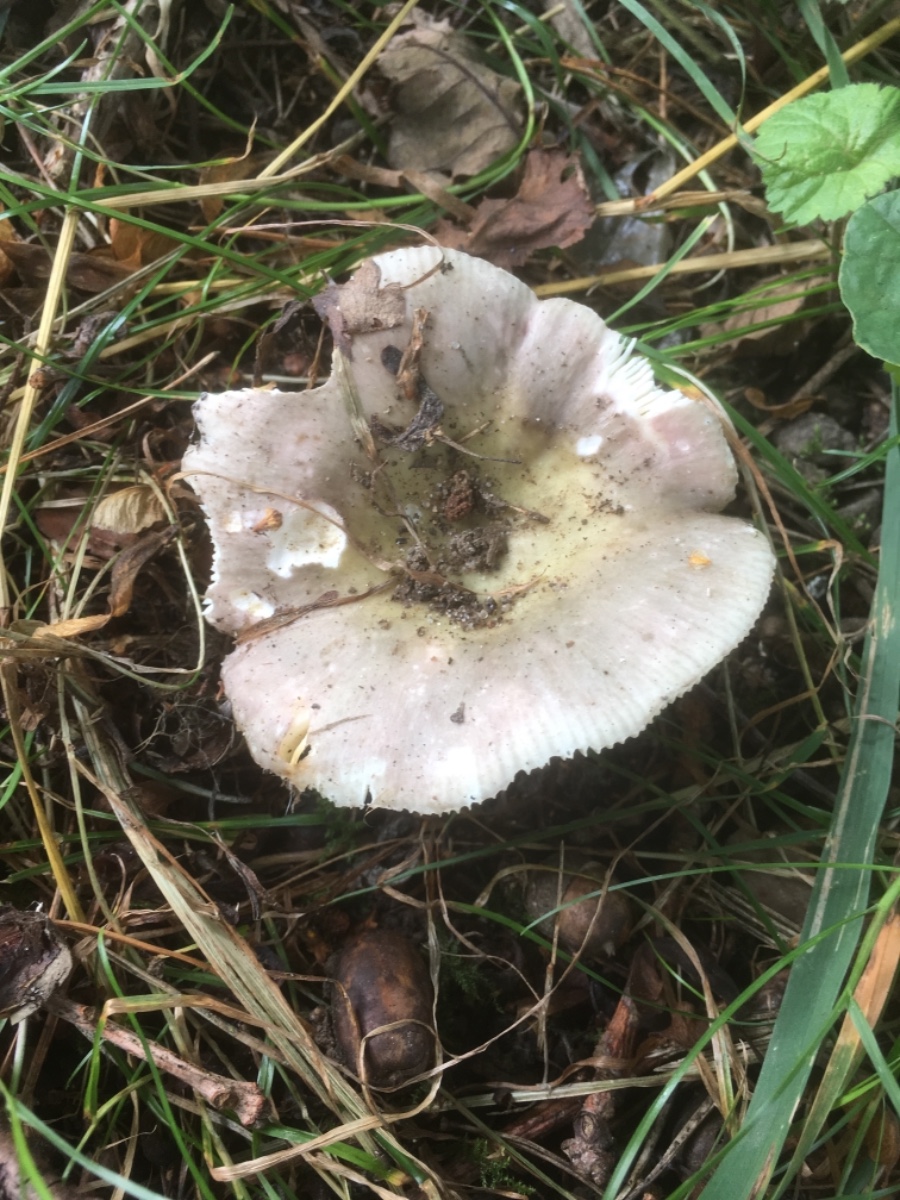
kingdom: Fungi
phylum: Basidiomycota
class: Agaricomycetes
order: Russulales
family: Russulaceae
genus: Russula
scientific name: Russula ionochlora
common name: violetgrøn skørhat
